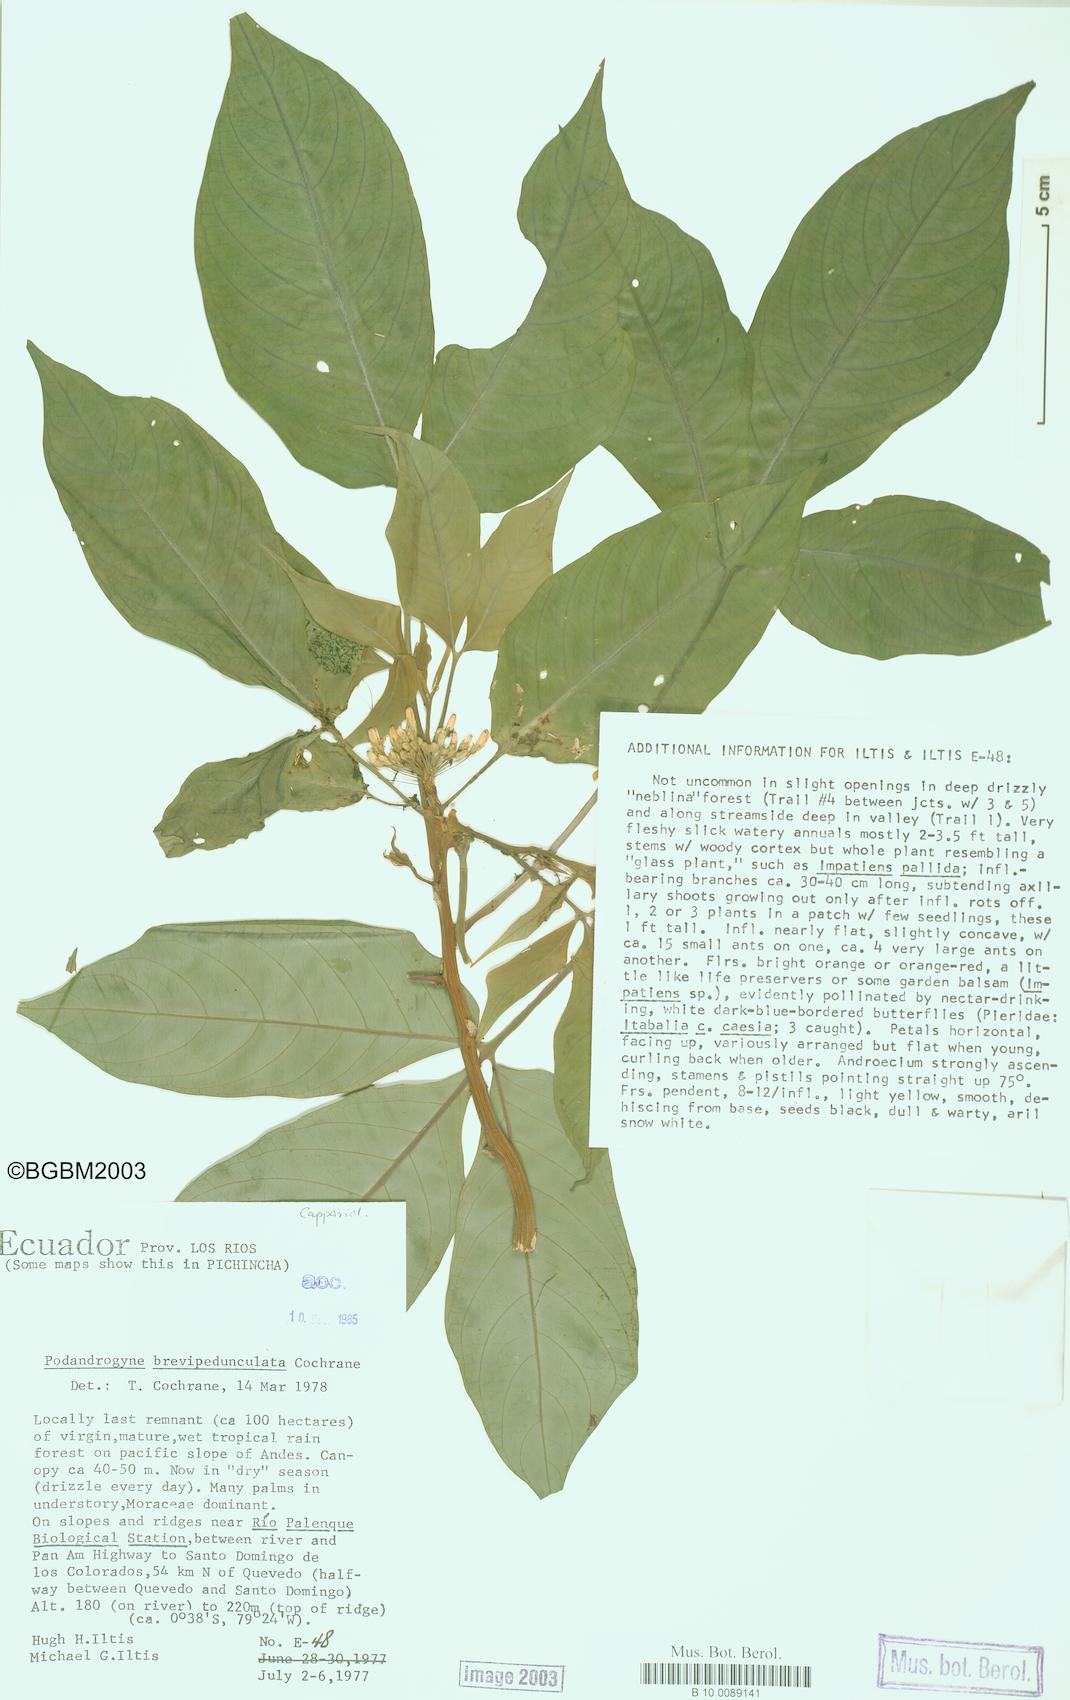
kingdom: Plantae
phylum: Tracheophyta
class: Magnoliopsida
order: Brassicales
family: Cleomaceae
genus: Podandrogyne
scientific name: Podandrogyne brevipedunculata
